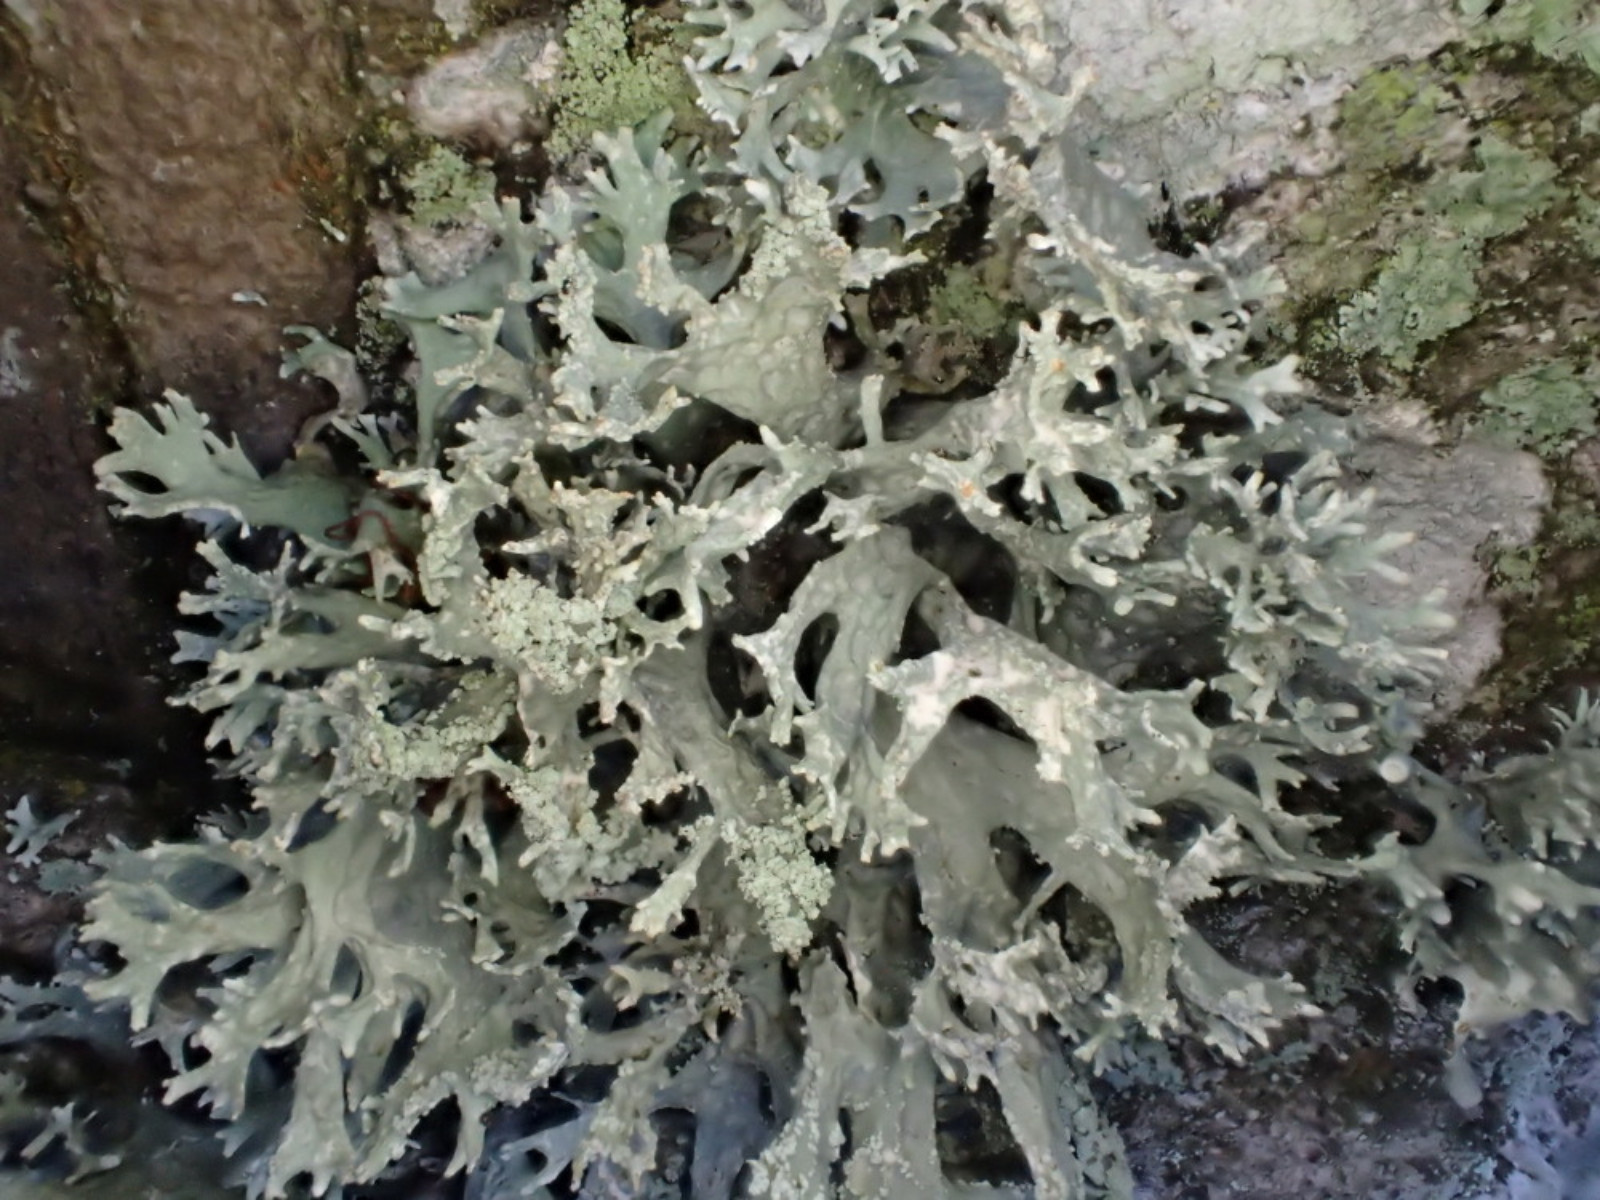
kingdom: Fungi
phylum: Ascomycota
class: Lecanoromycetes
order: Lecanorales
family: Parmeliaceae
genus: Evernia
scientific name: Evernia prunastri
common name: almindelig slåenlav
